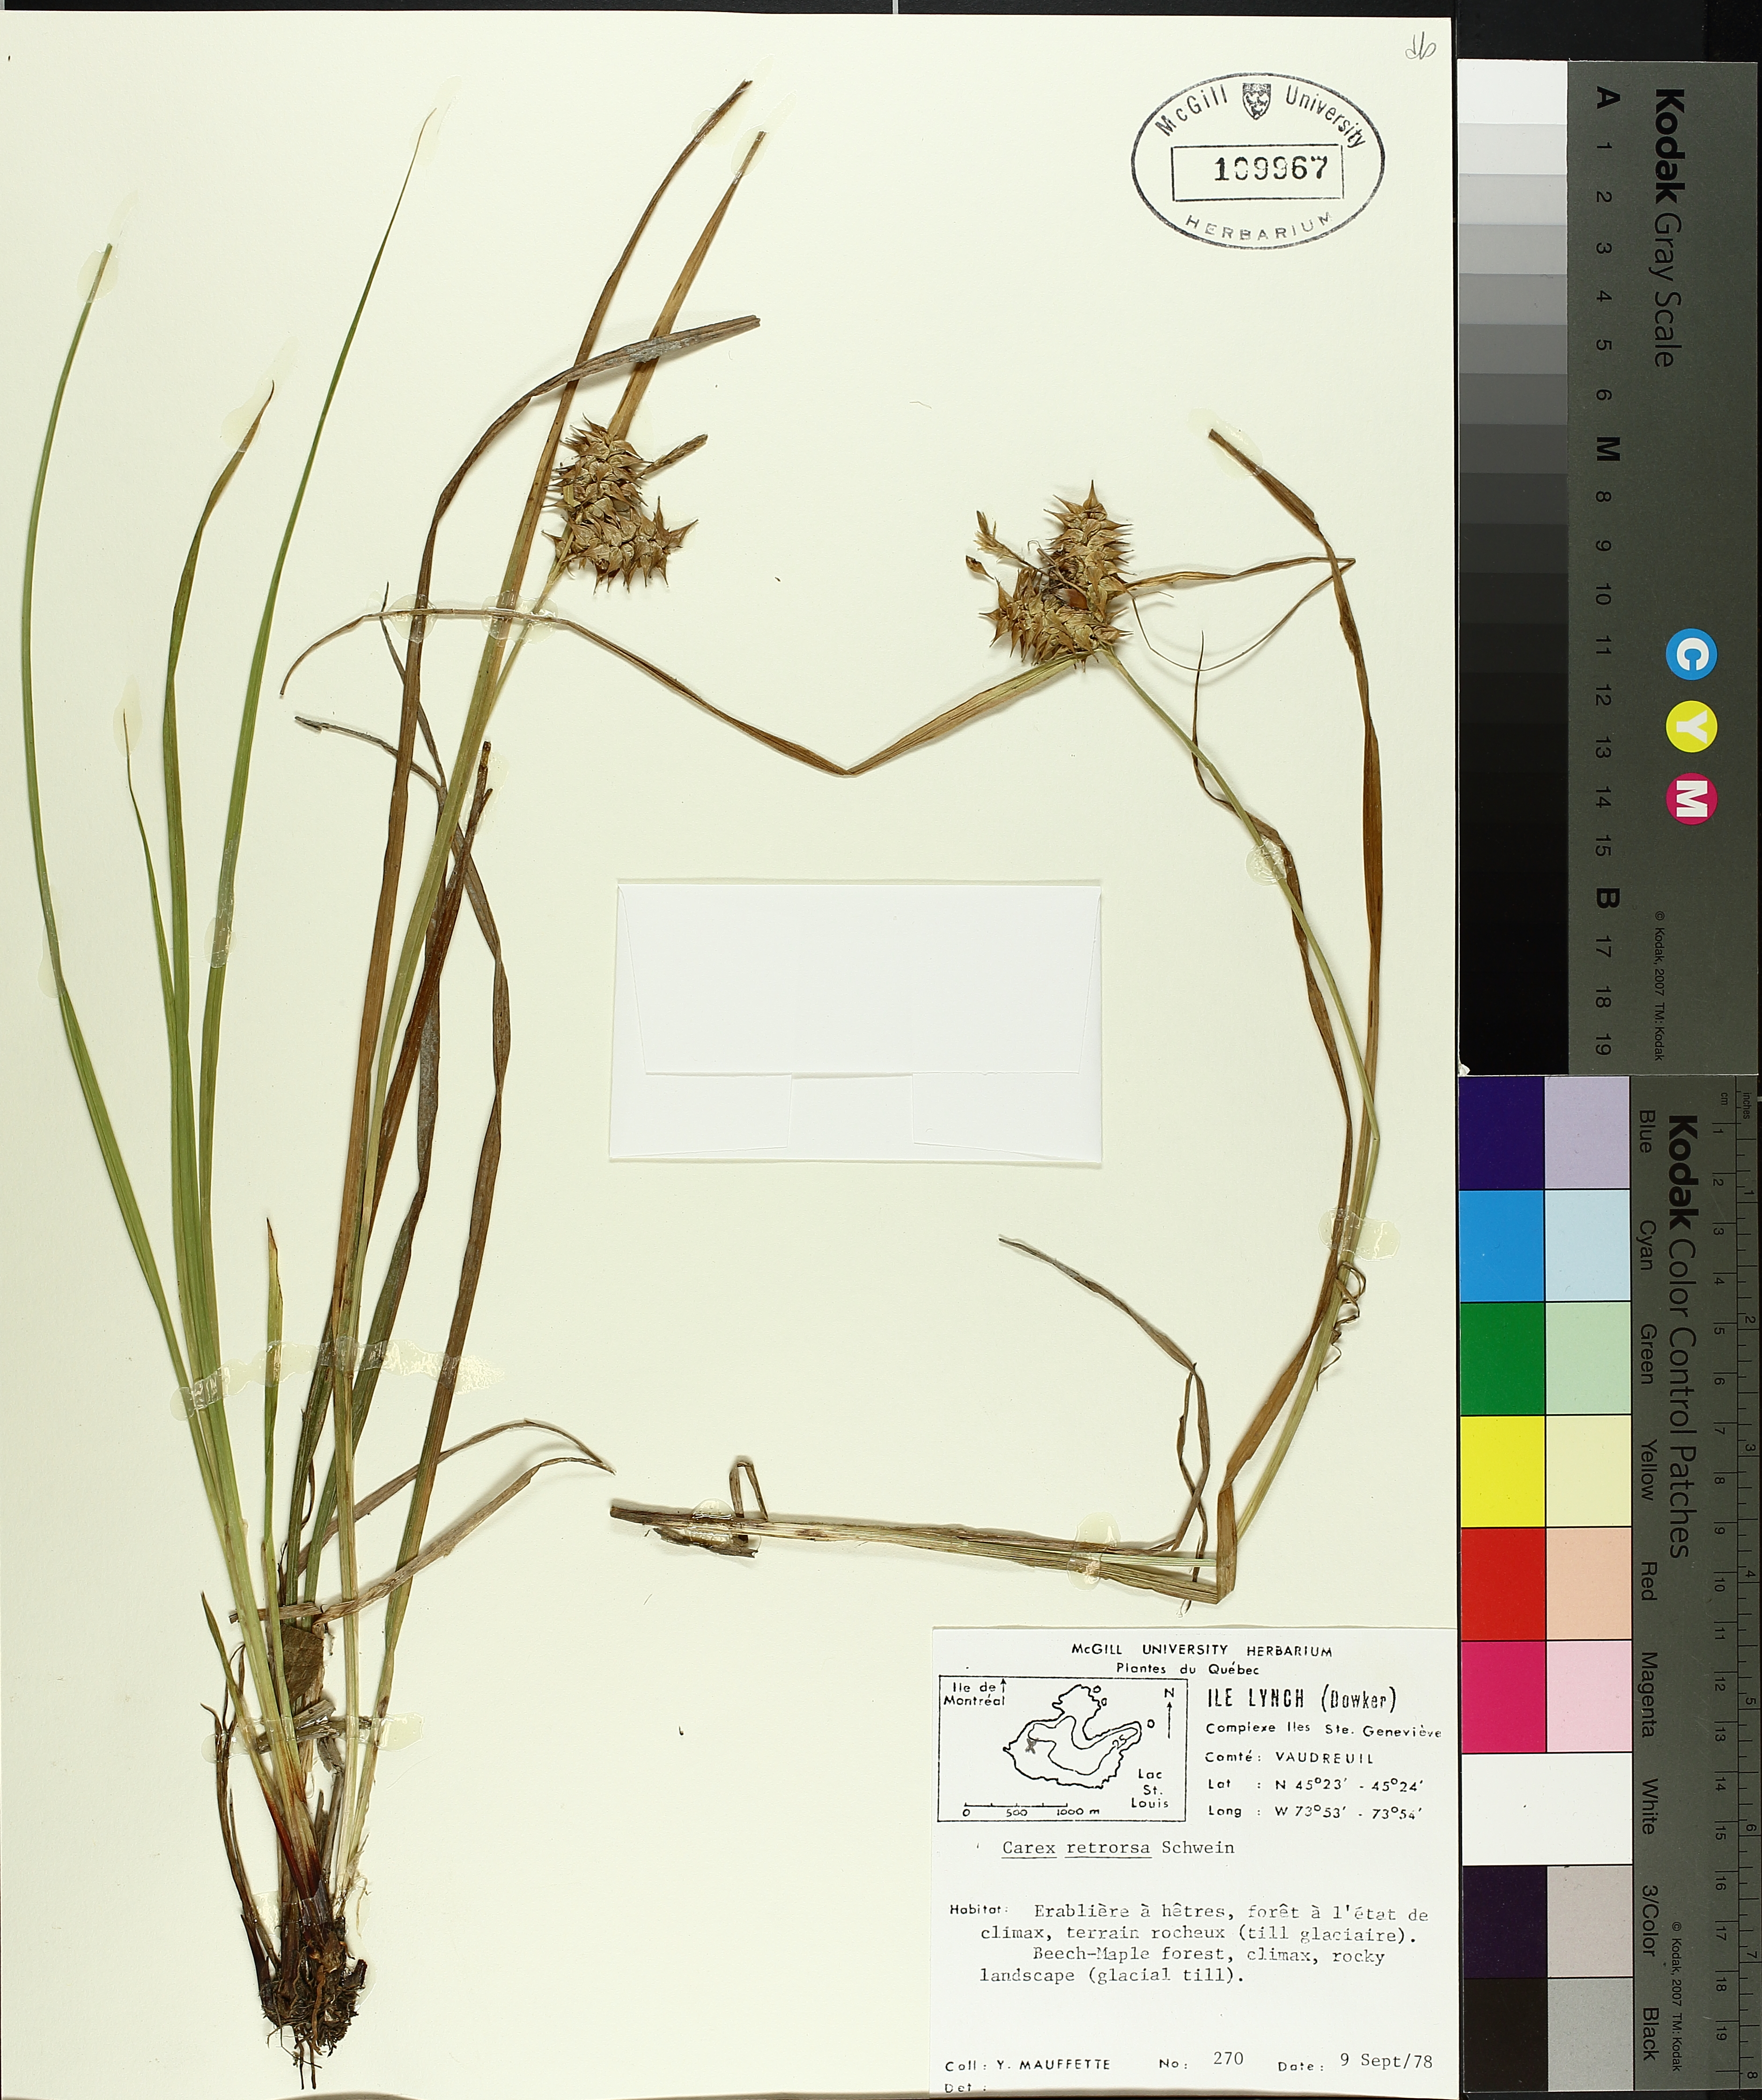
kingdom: Plantae
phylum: Tracheophyta
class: Liliopsida
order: Poales
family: Cyperaceae
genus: Carex
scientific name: Carex retrorsa
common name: Knot-sheath sedge
